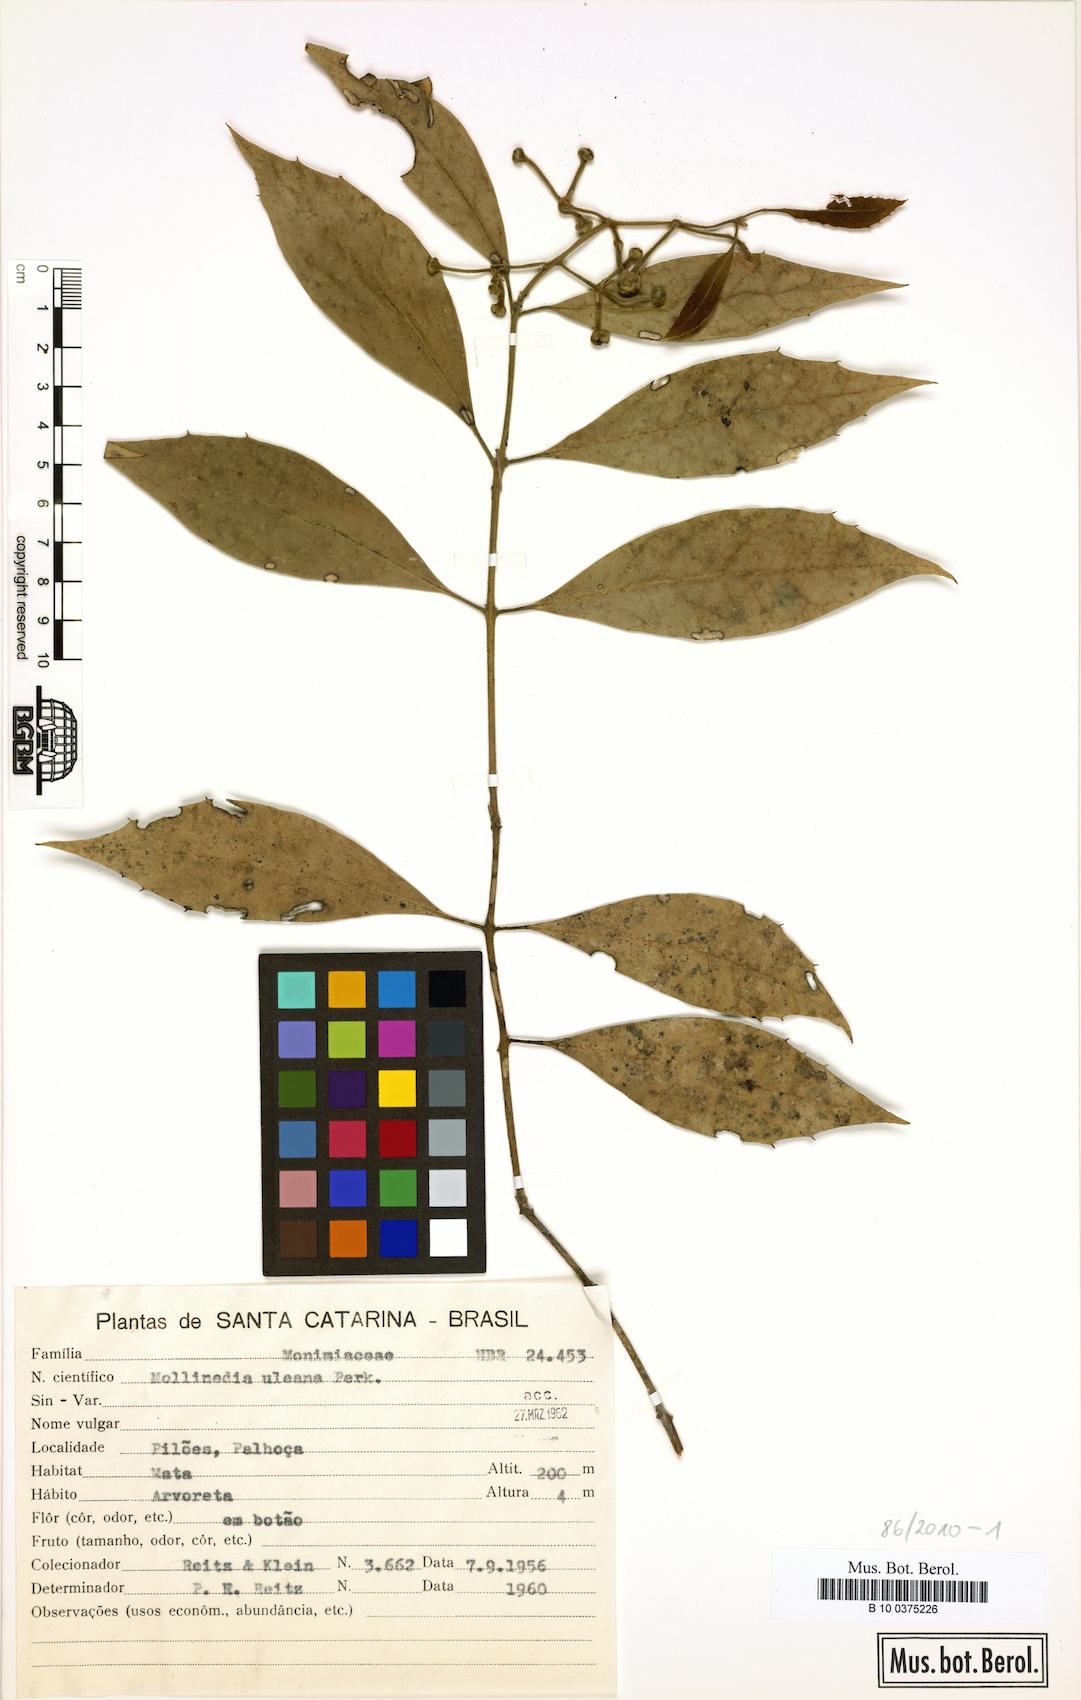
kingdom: Plantae
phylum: Tracheophyta
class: Magnoliopsida
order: Laurales
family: Monimiaceae
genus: Mollinedia
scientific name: Mollinedia uleana
